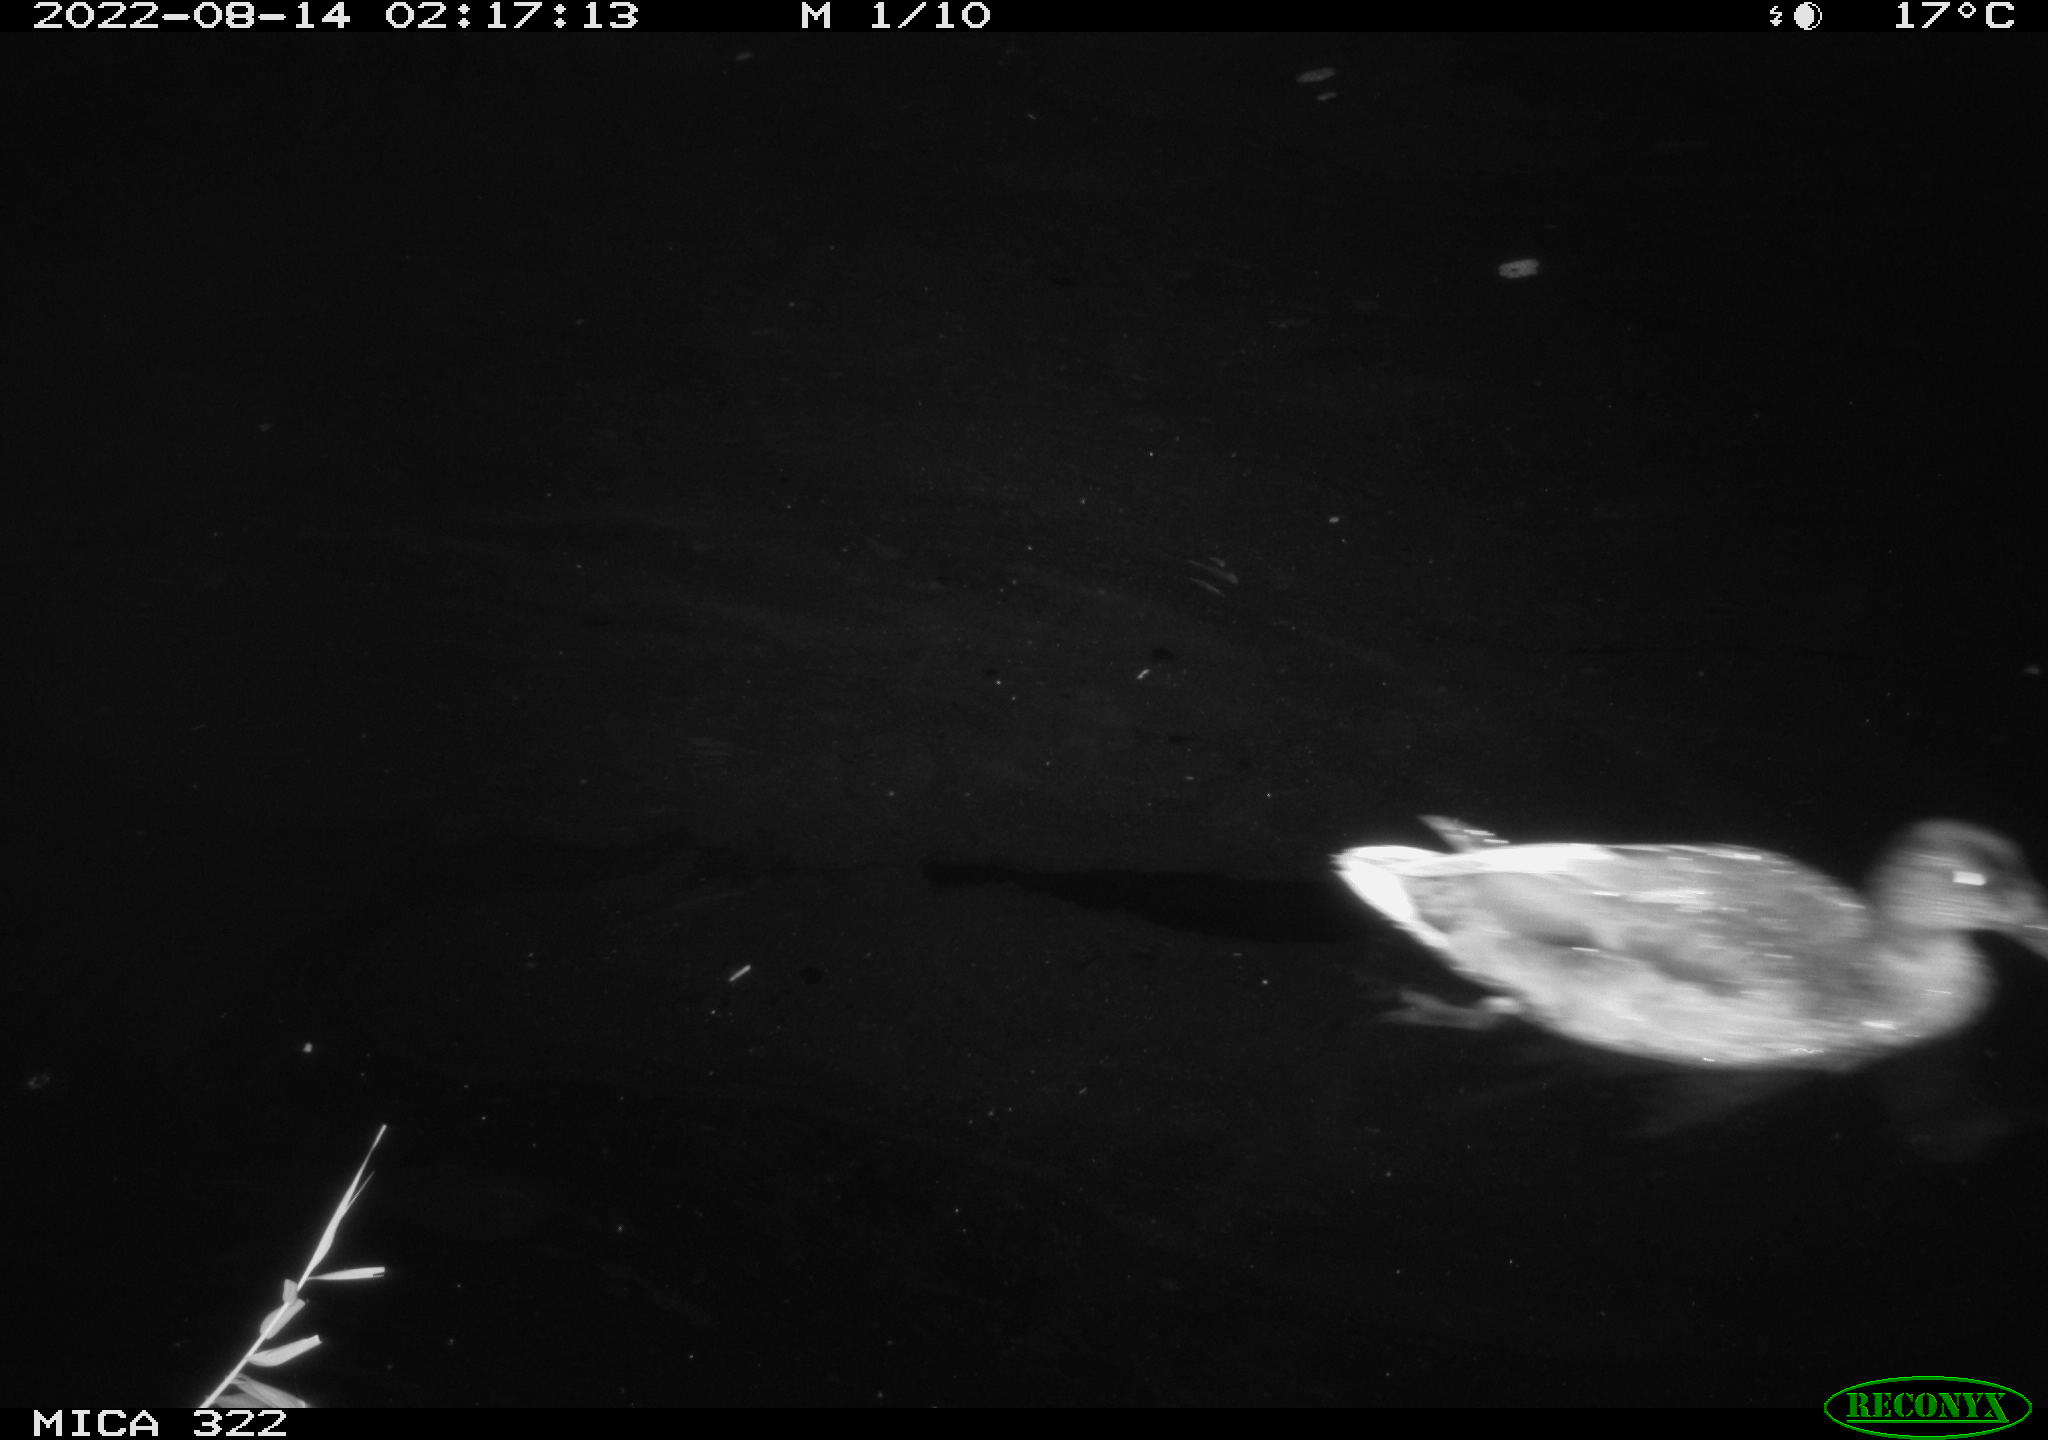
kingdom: Animalia
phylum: Chordata
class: Aves
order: Anseriformes
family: Anatidae
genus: Anas
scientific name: Anas platyrhynchos
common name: Mallard
